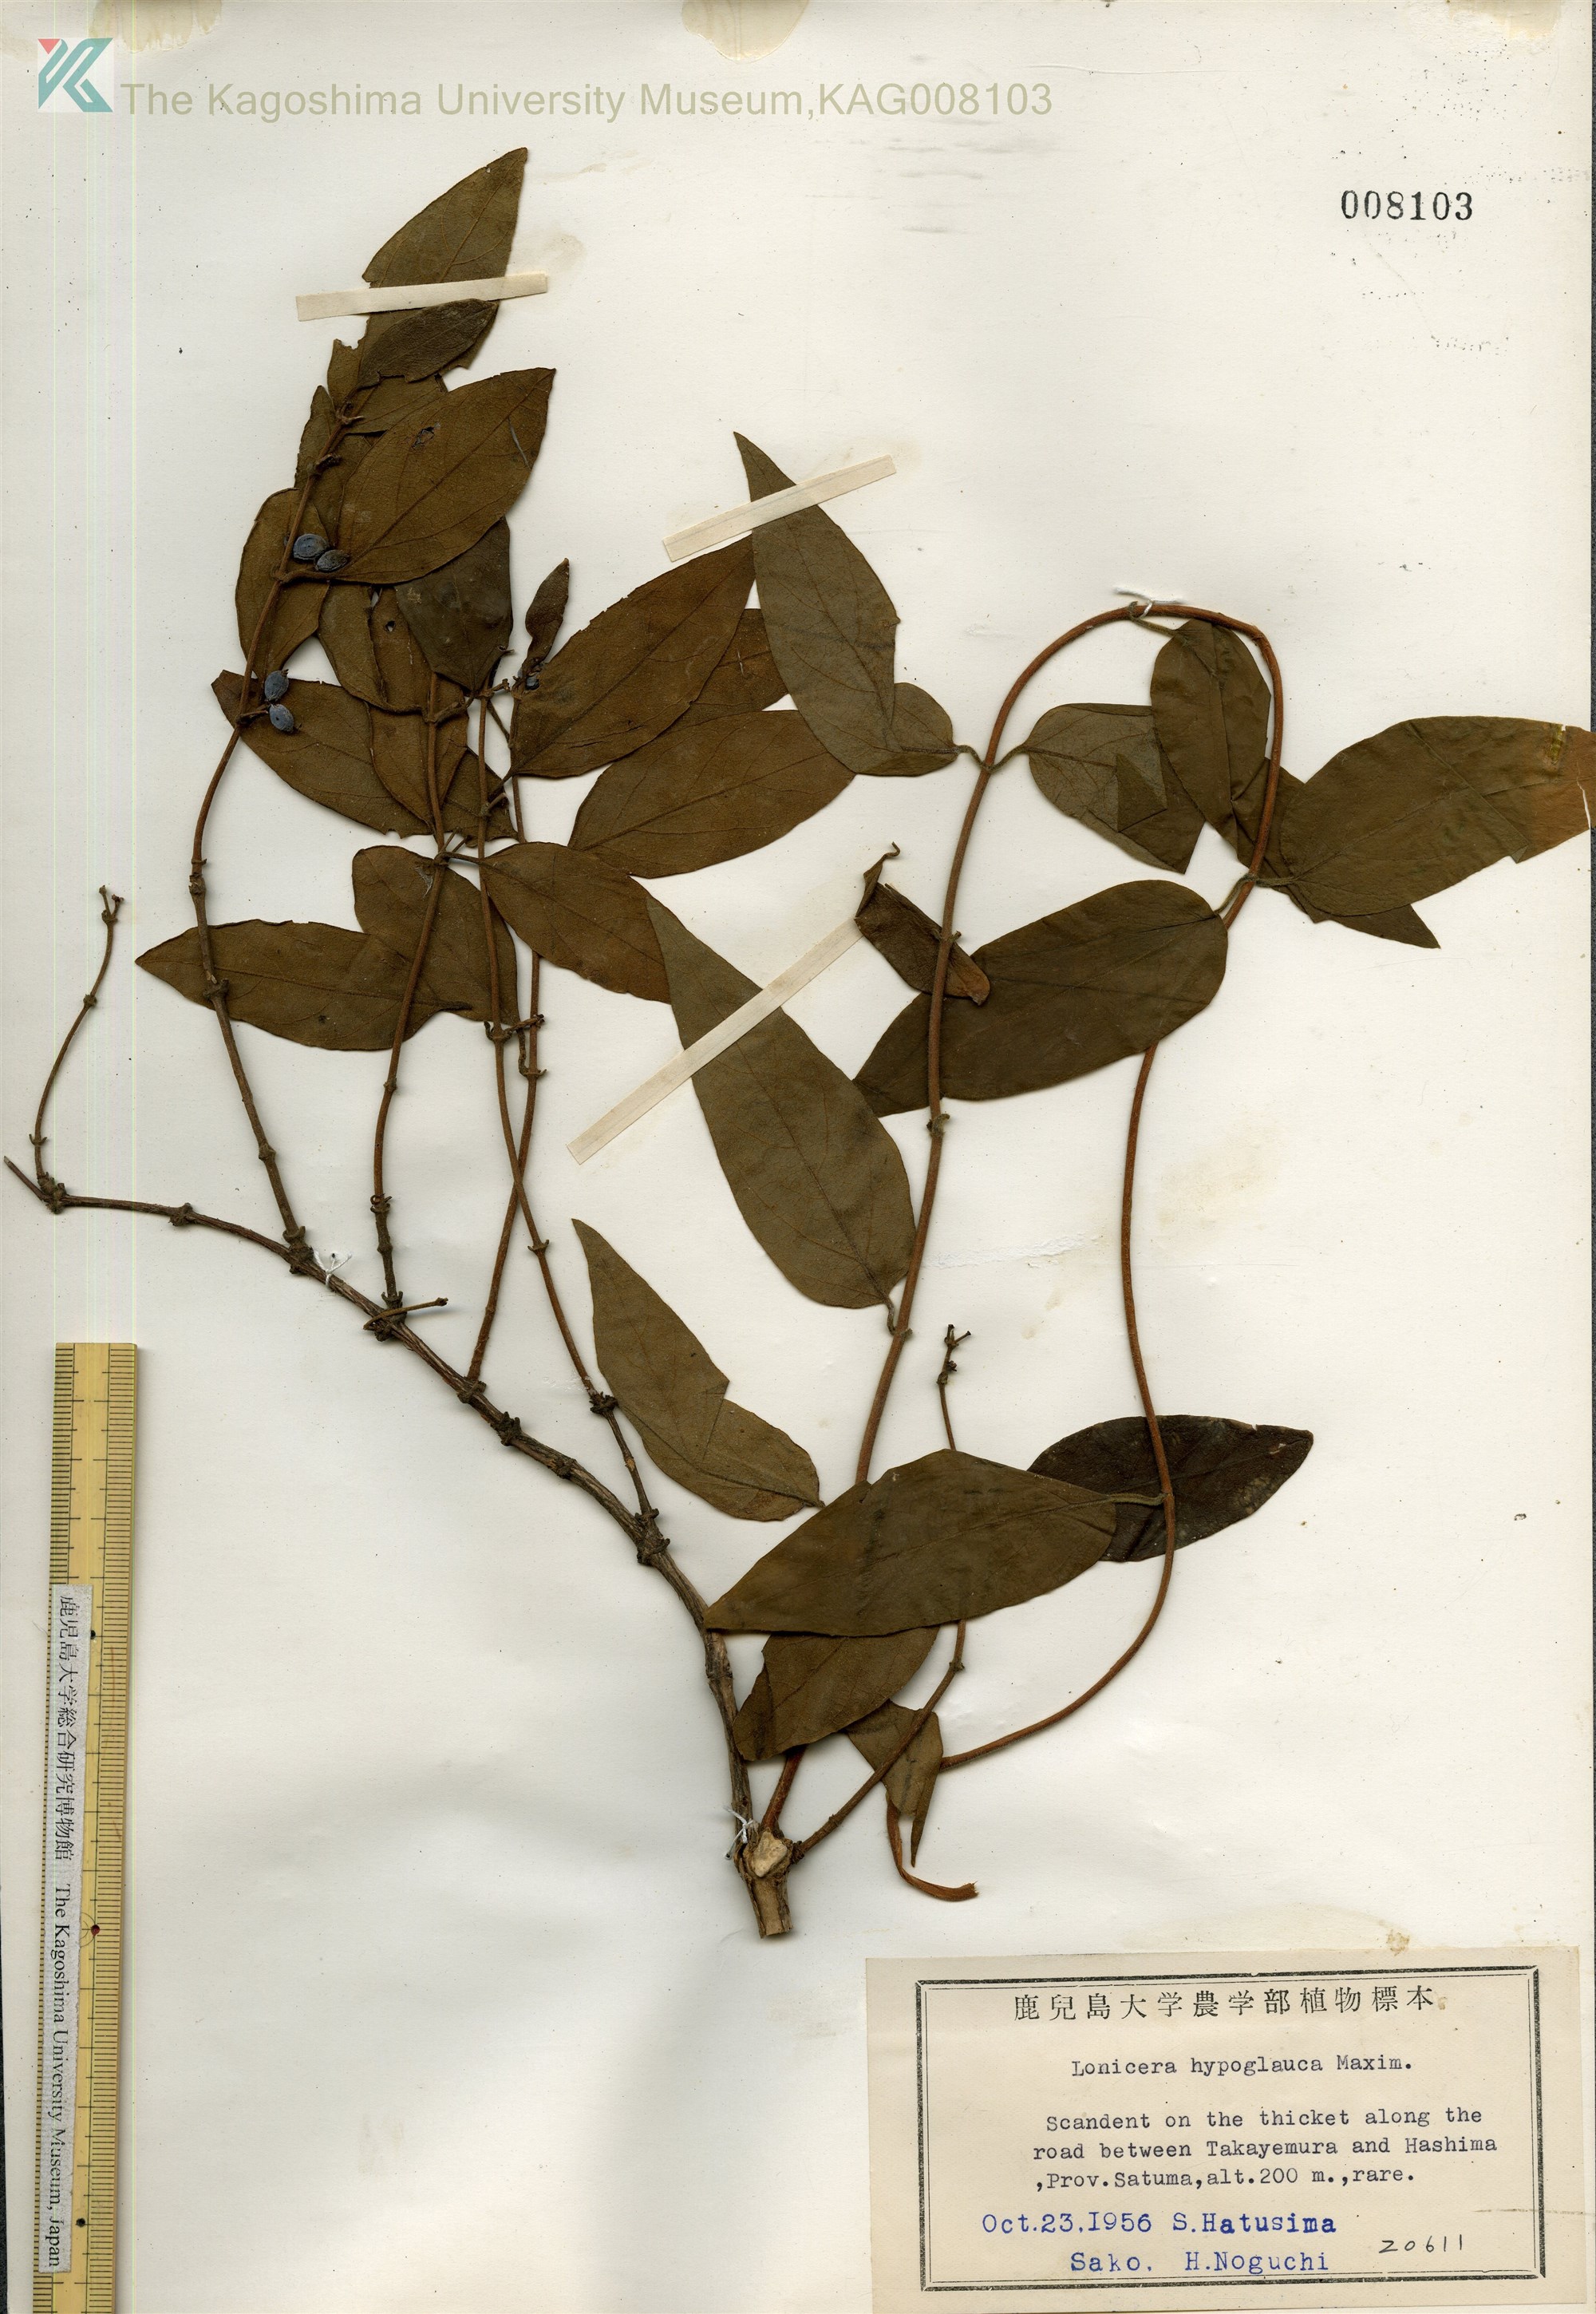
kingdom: Plantae
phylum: Tracheophyta
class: Magnoliopsida
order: Dipsacales
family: Caprifoliaceae
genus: Lonicera
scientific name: Lonicera hypoglauca
